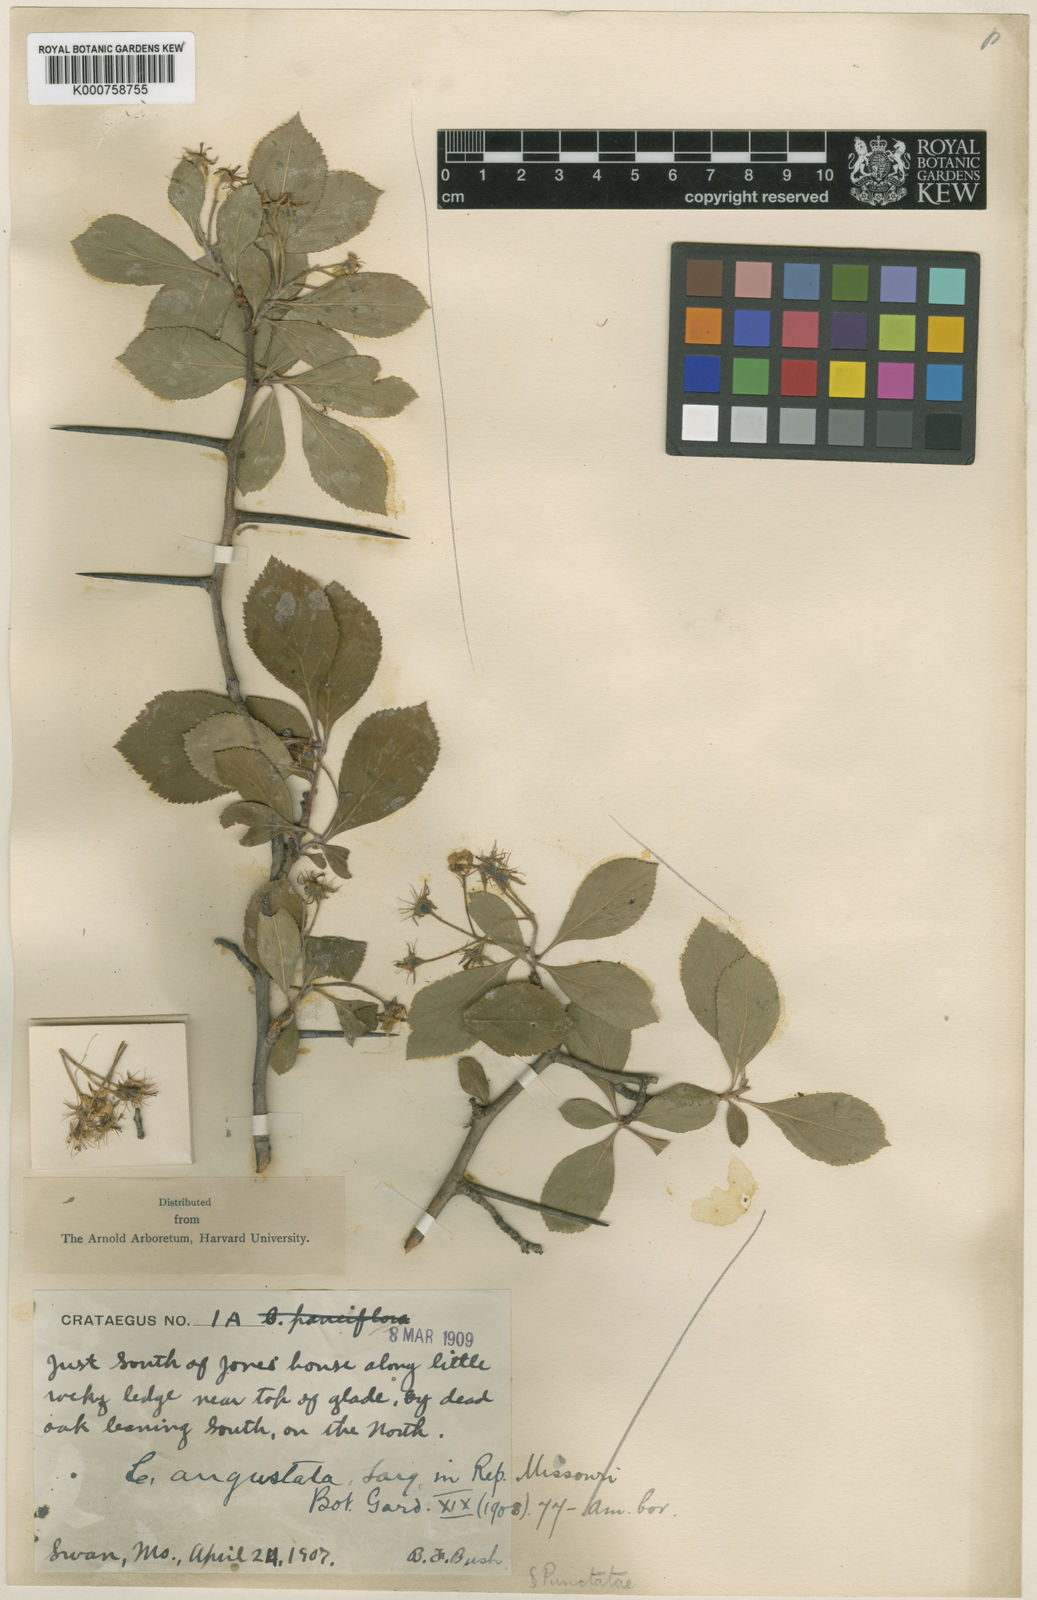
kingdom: Plantae
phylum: Tracheophyta
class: Magnoliopsida
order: Rosales
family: Rosaceae
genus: Crataegus
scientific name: Crataegus angustata
